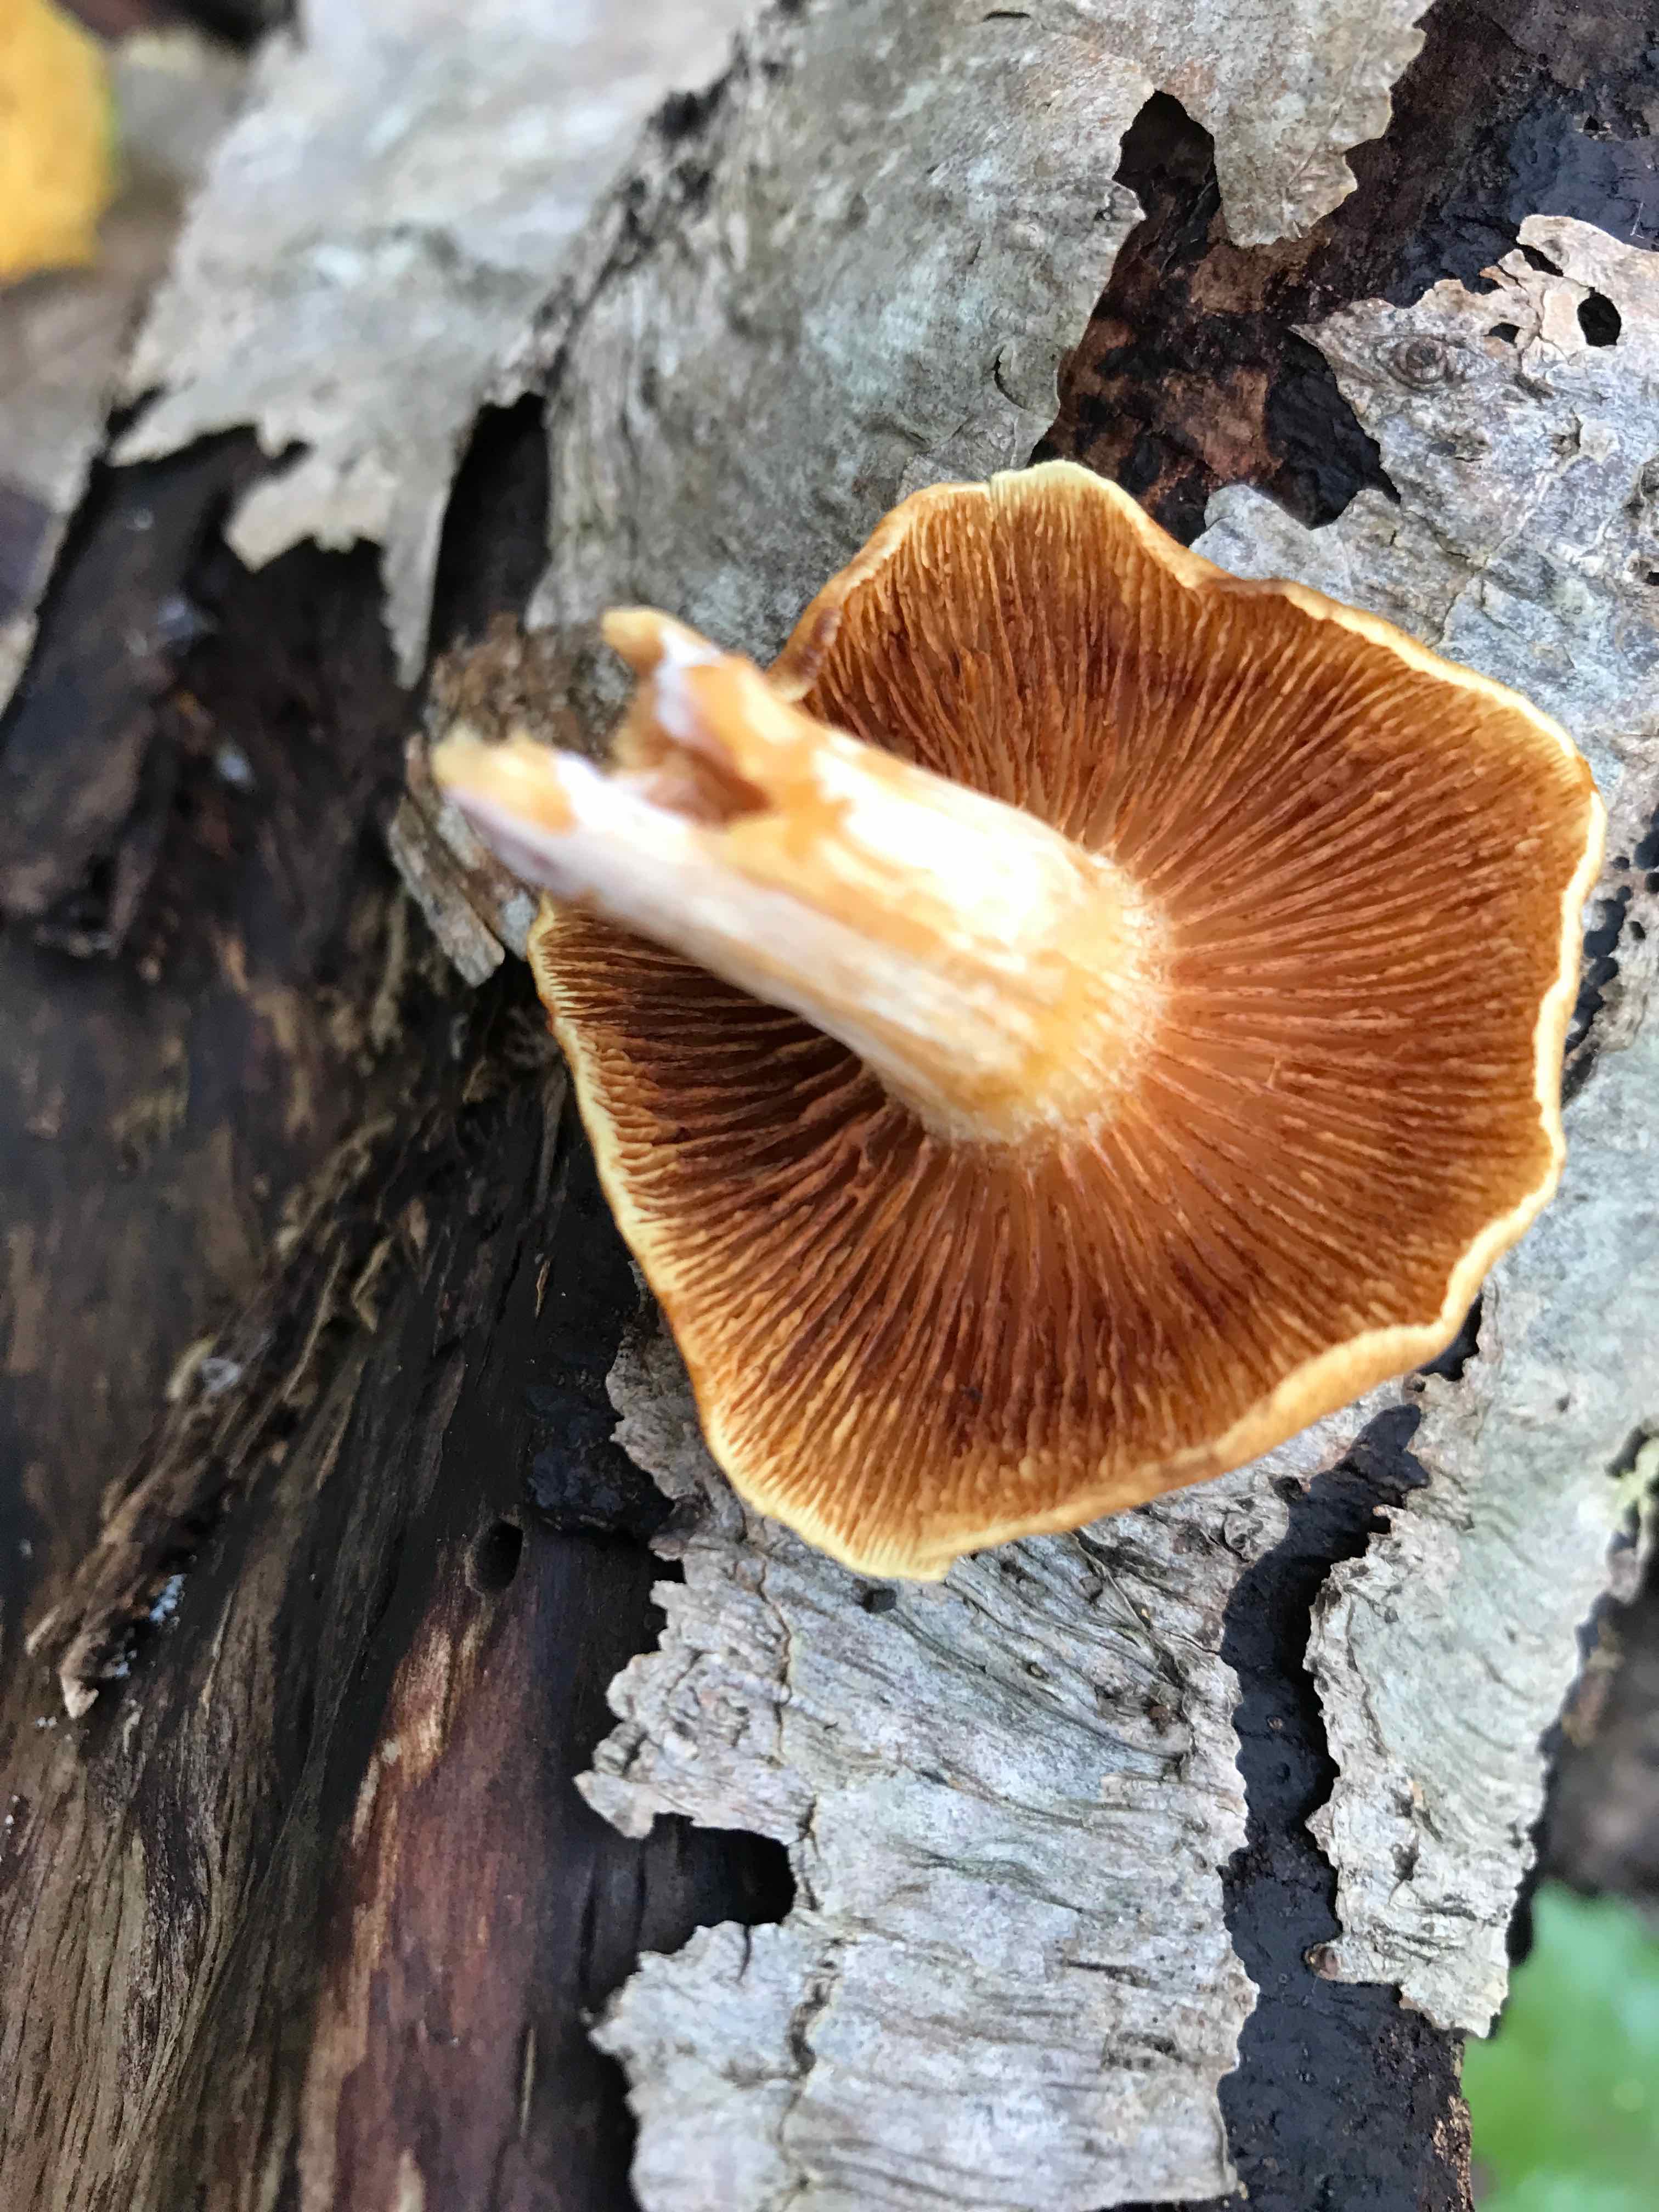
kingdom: Fungi
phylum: Basidiomycota
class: Agaricomycetes
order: Agaricales
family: Hymenogastraceae
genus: Gymnopilus
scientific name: Gymnopilus penetrans
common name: plettet flammehat
